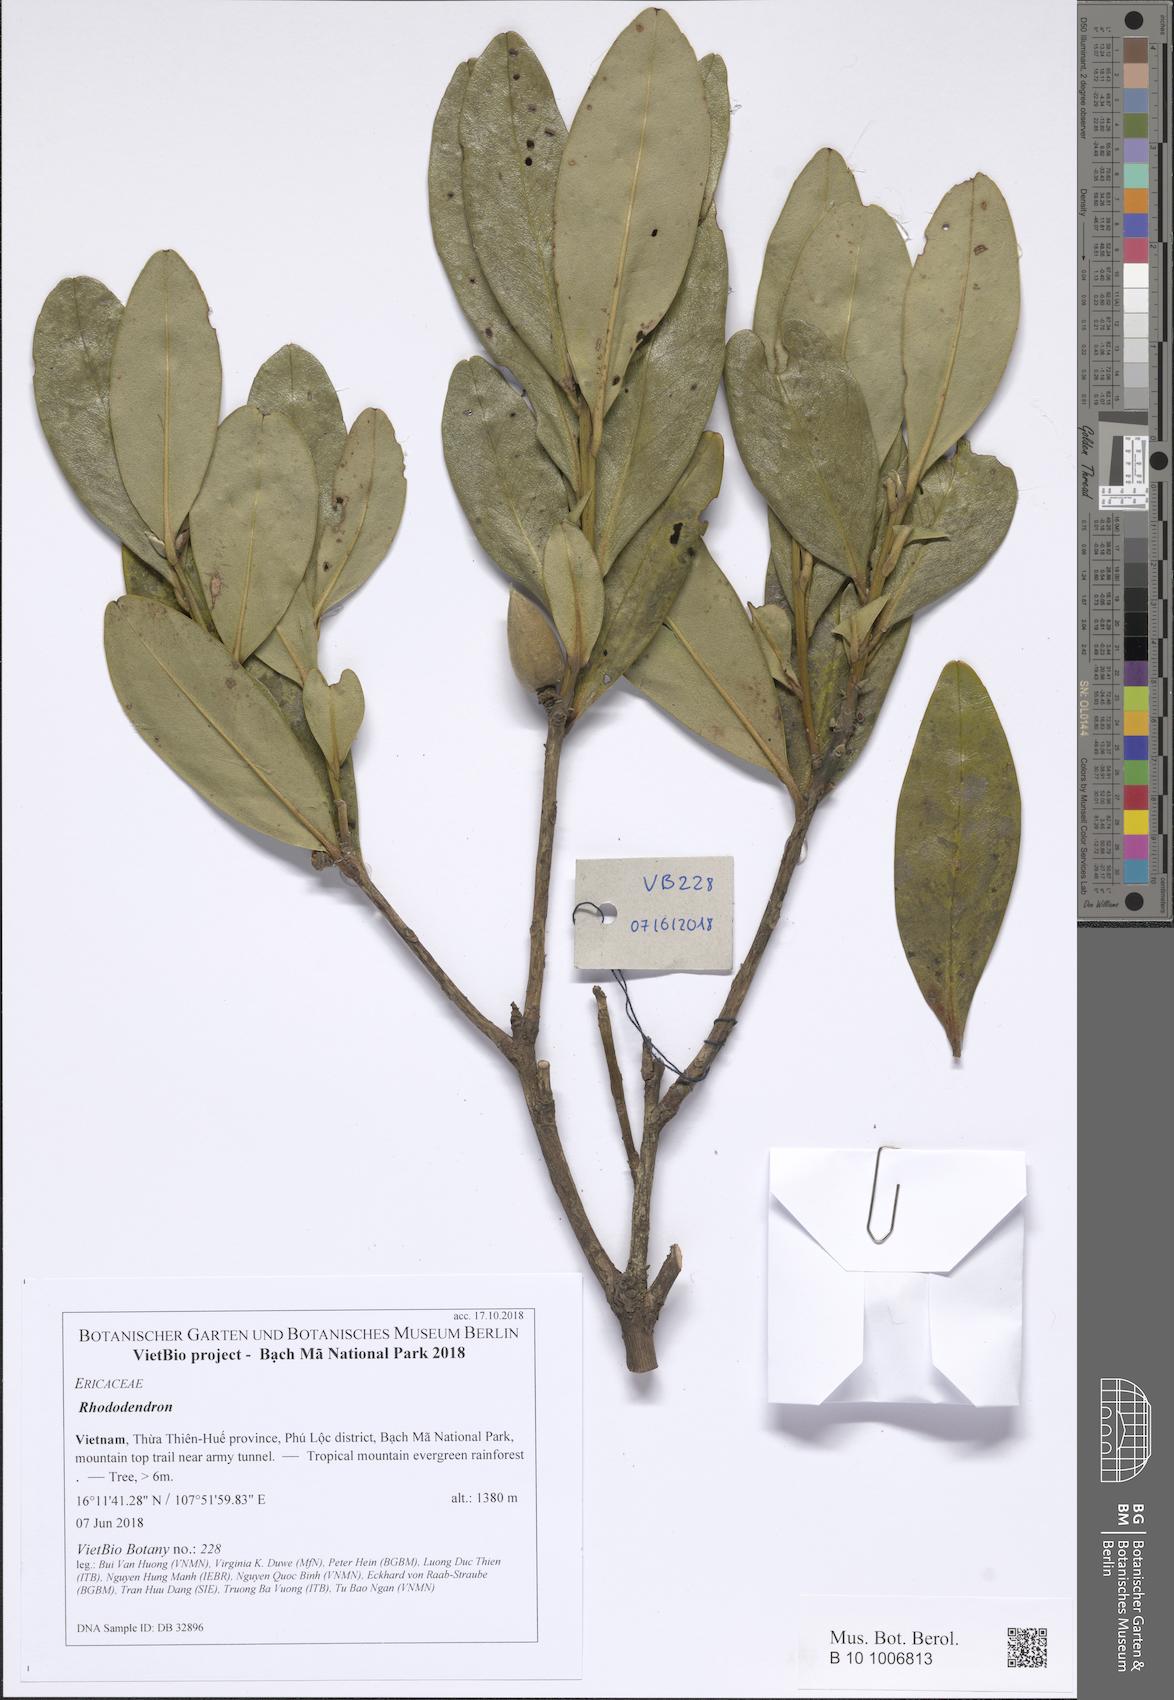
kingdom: Plantae
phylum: Tracheophyta
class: Magnoliopsida
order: Ericales
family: Theaceae
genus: Polyspora
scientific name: Polyspora axillaris
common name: Fried egg tree
